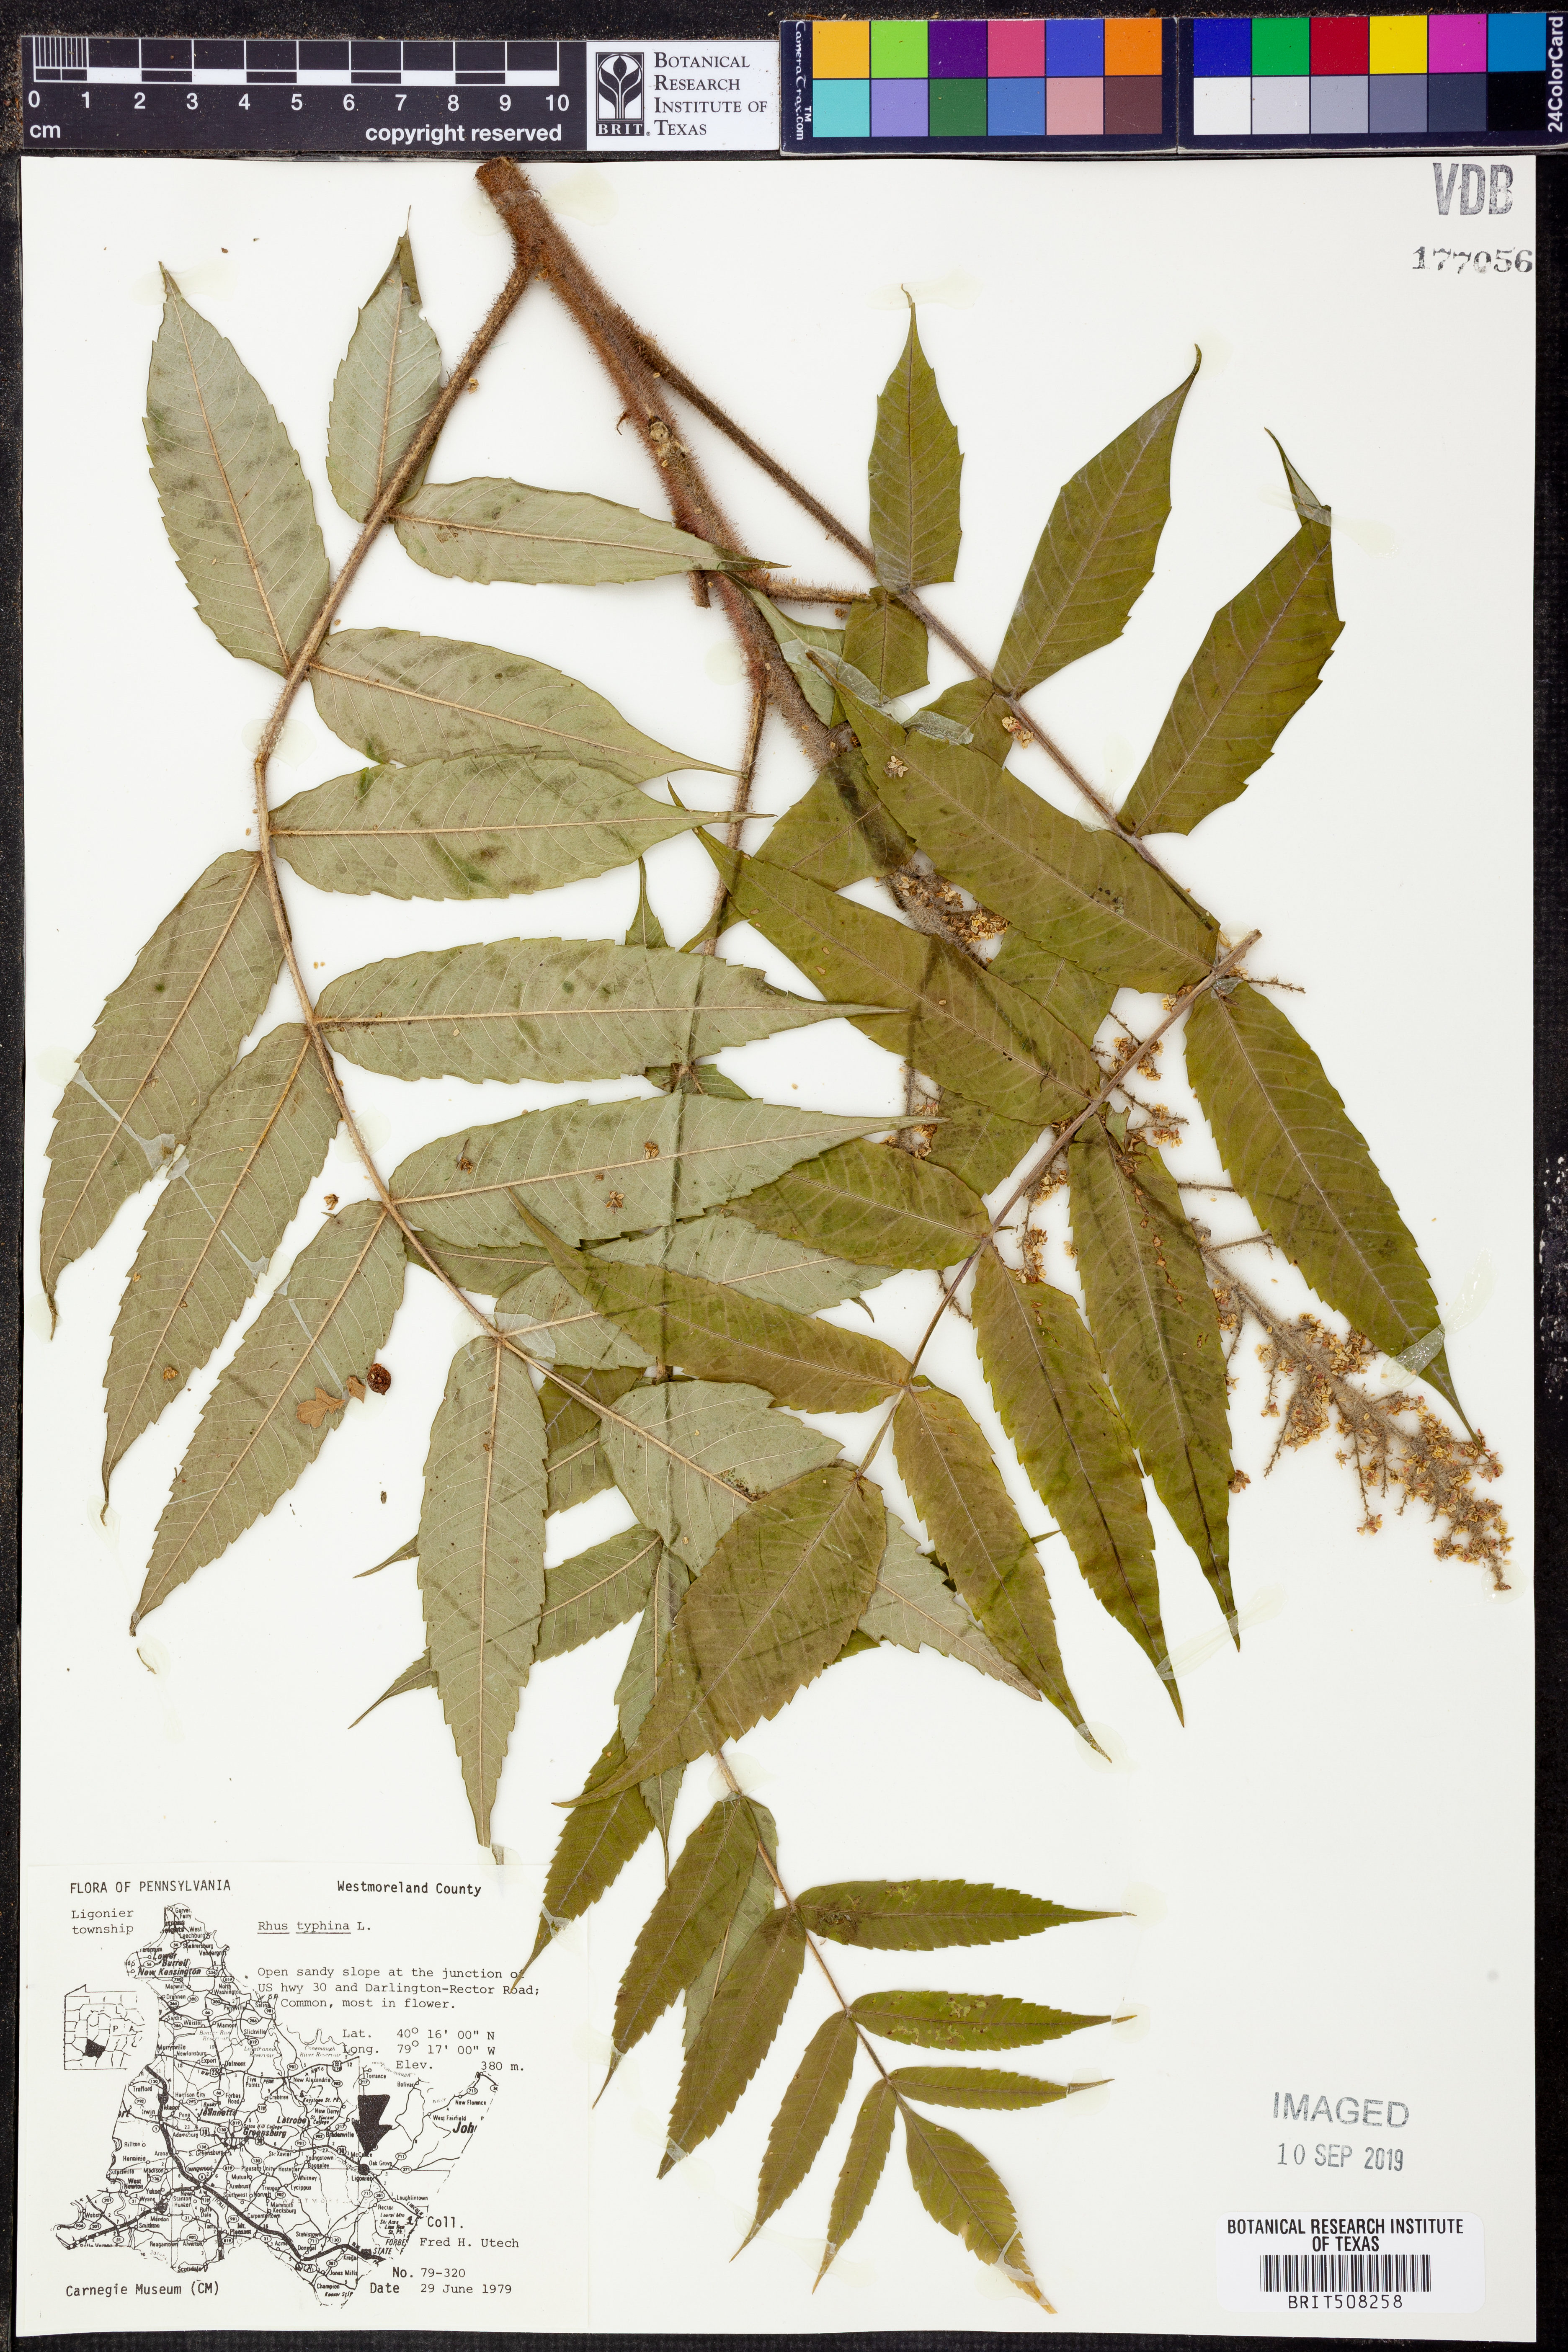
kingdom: Plantae
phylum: Tracheophyta
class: Magnoliopsida
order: Sapindales
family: Anacardiaceae
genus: Rhus
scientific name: Rhus typhina
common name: Staghorn sumac
